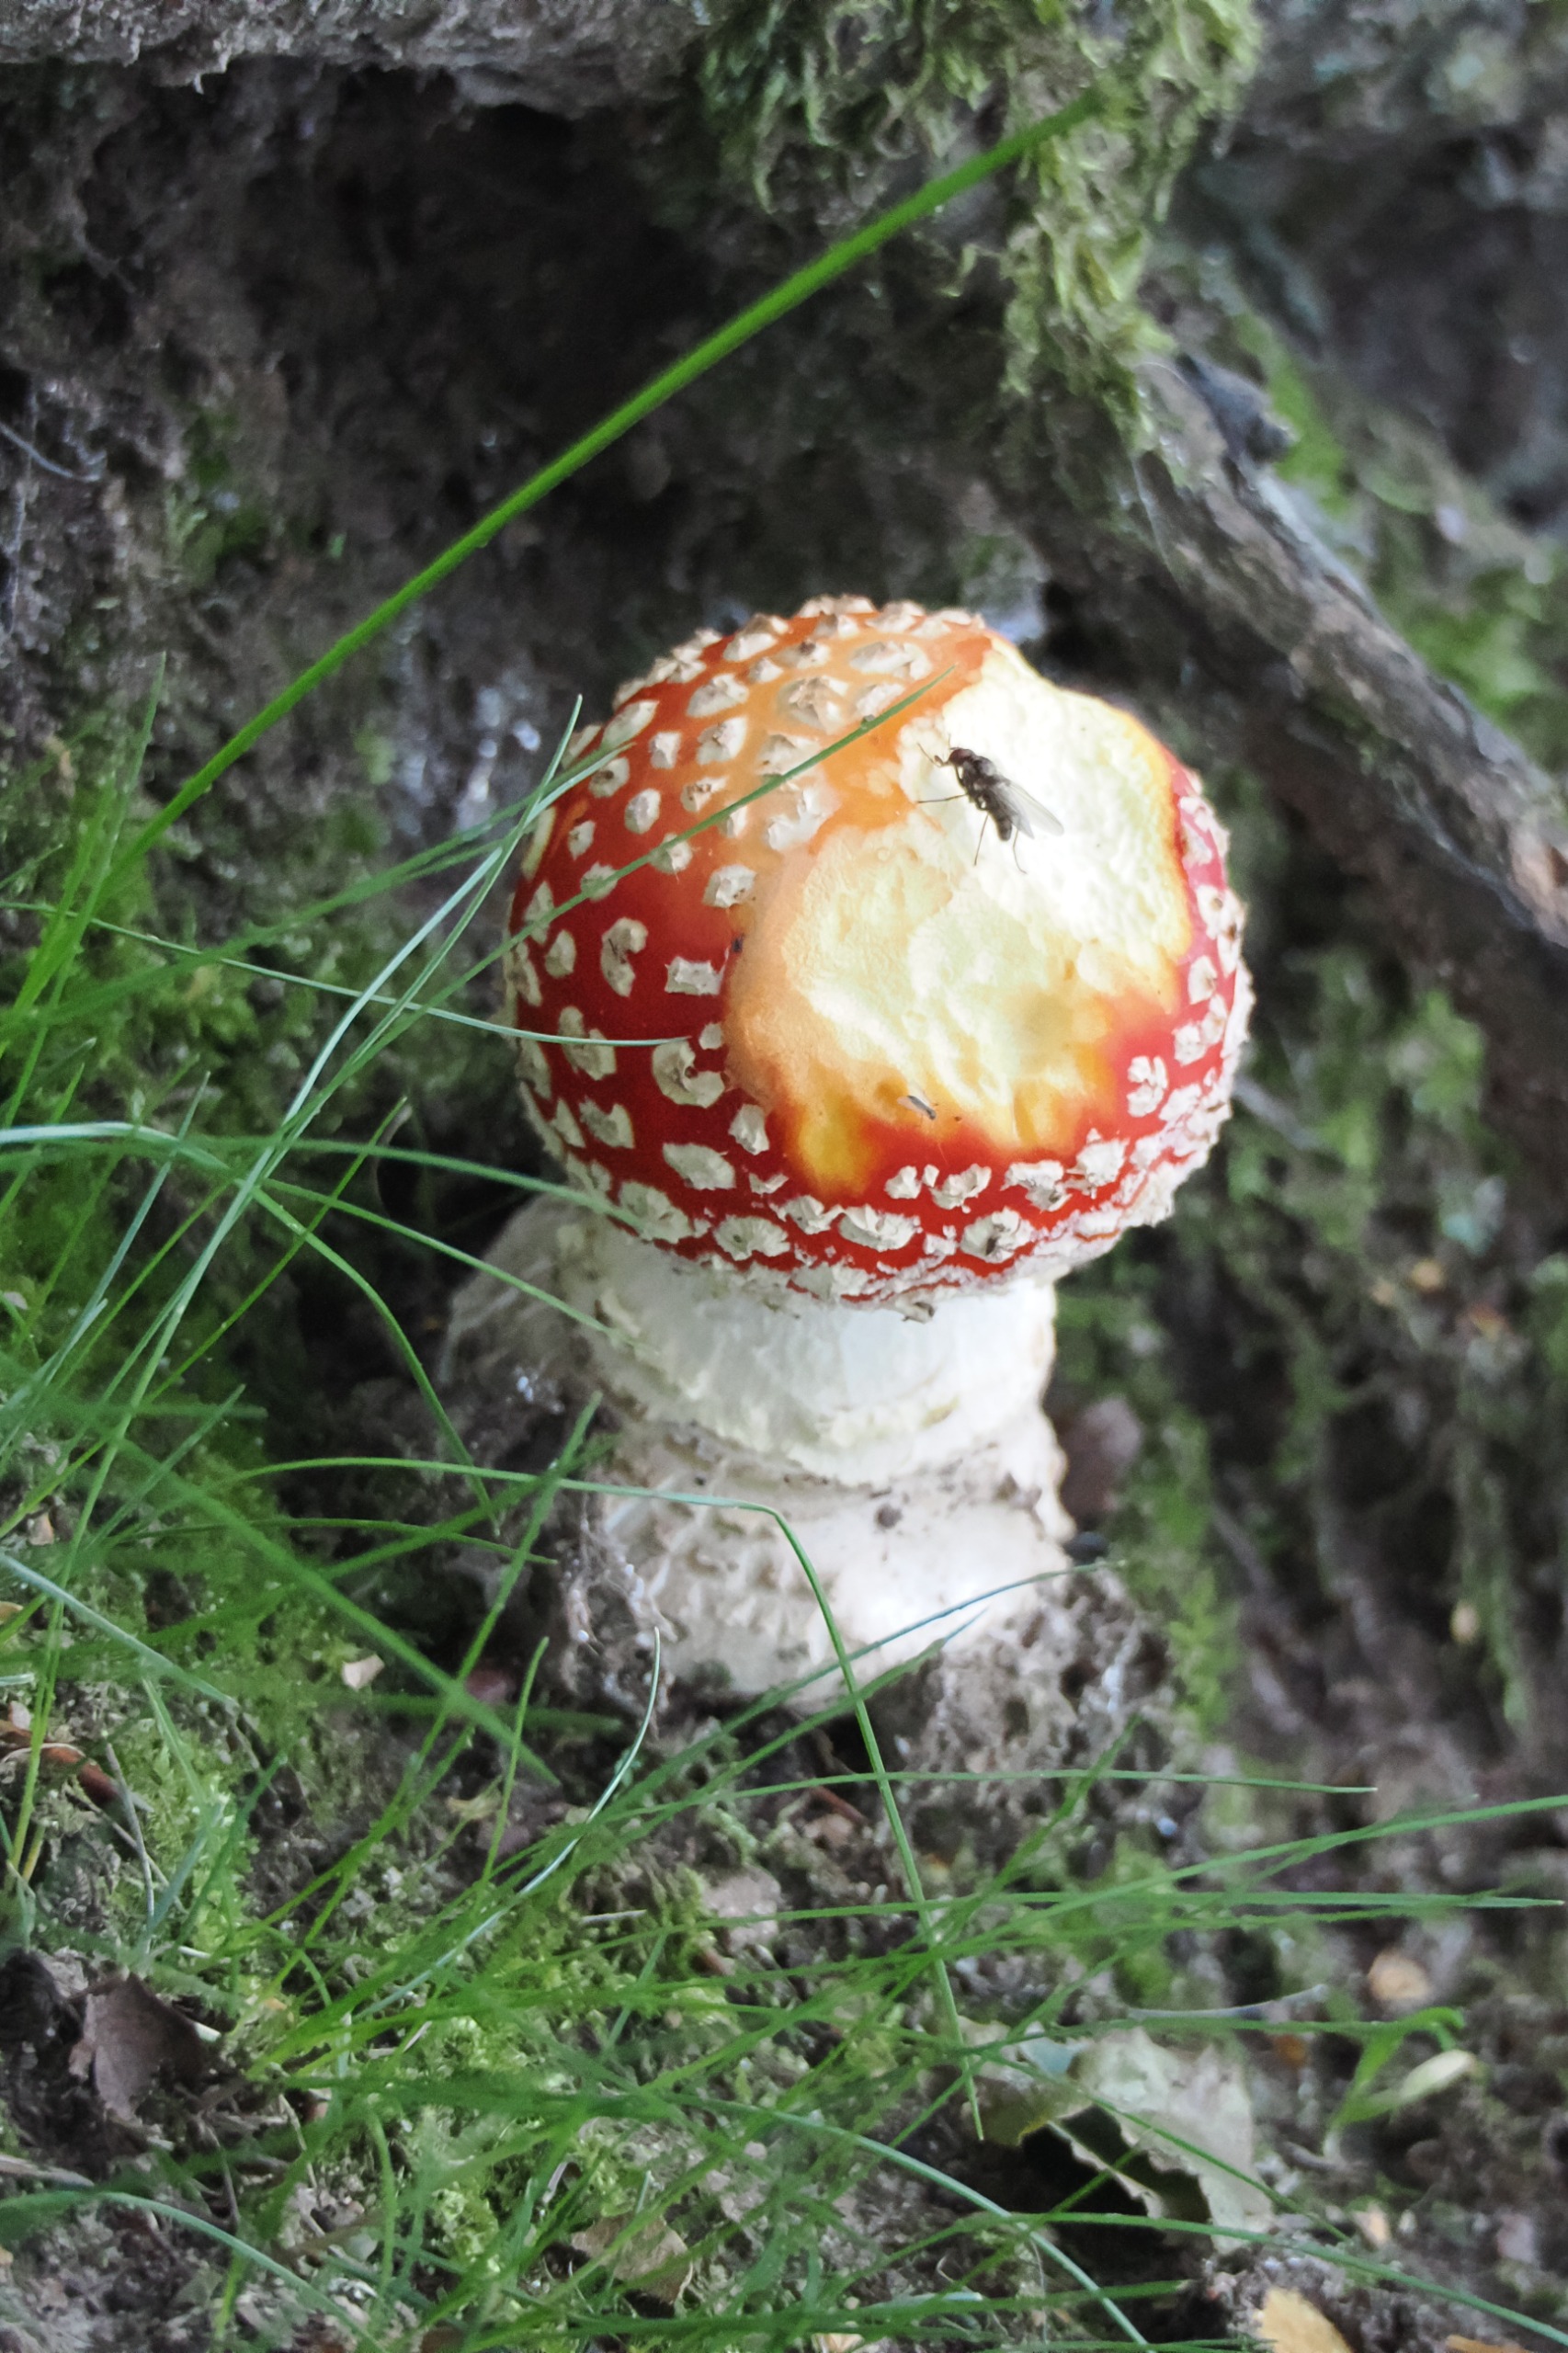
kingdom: Fungi
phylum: Basidiomycota
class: Agaricomycetes
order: Agaricales
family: Amanitaceae
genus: Amanita
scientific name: Amanita muscaria
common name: Rød fluesvamp
